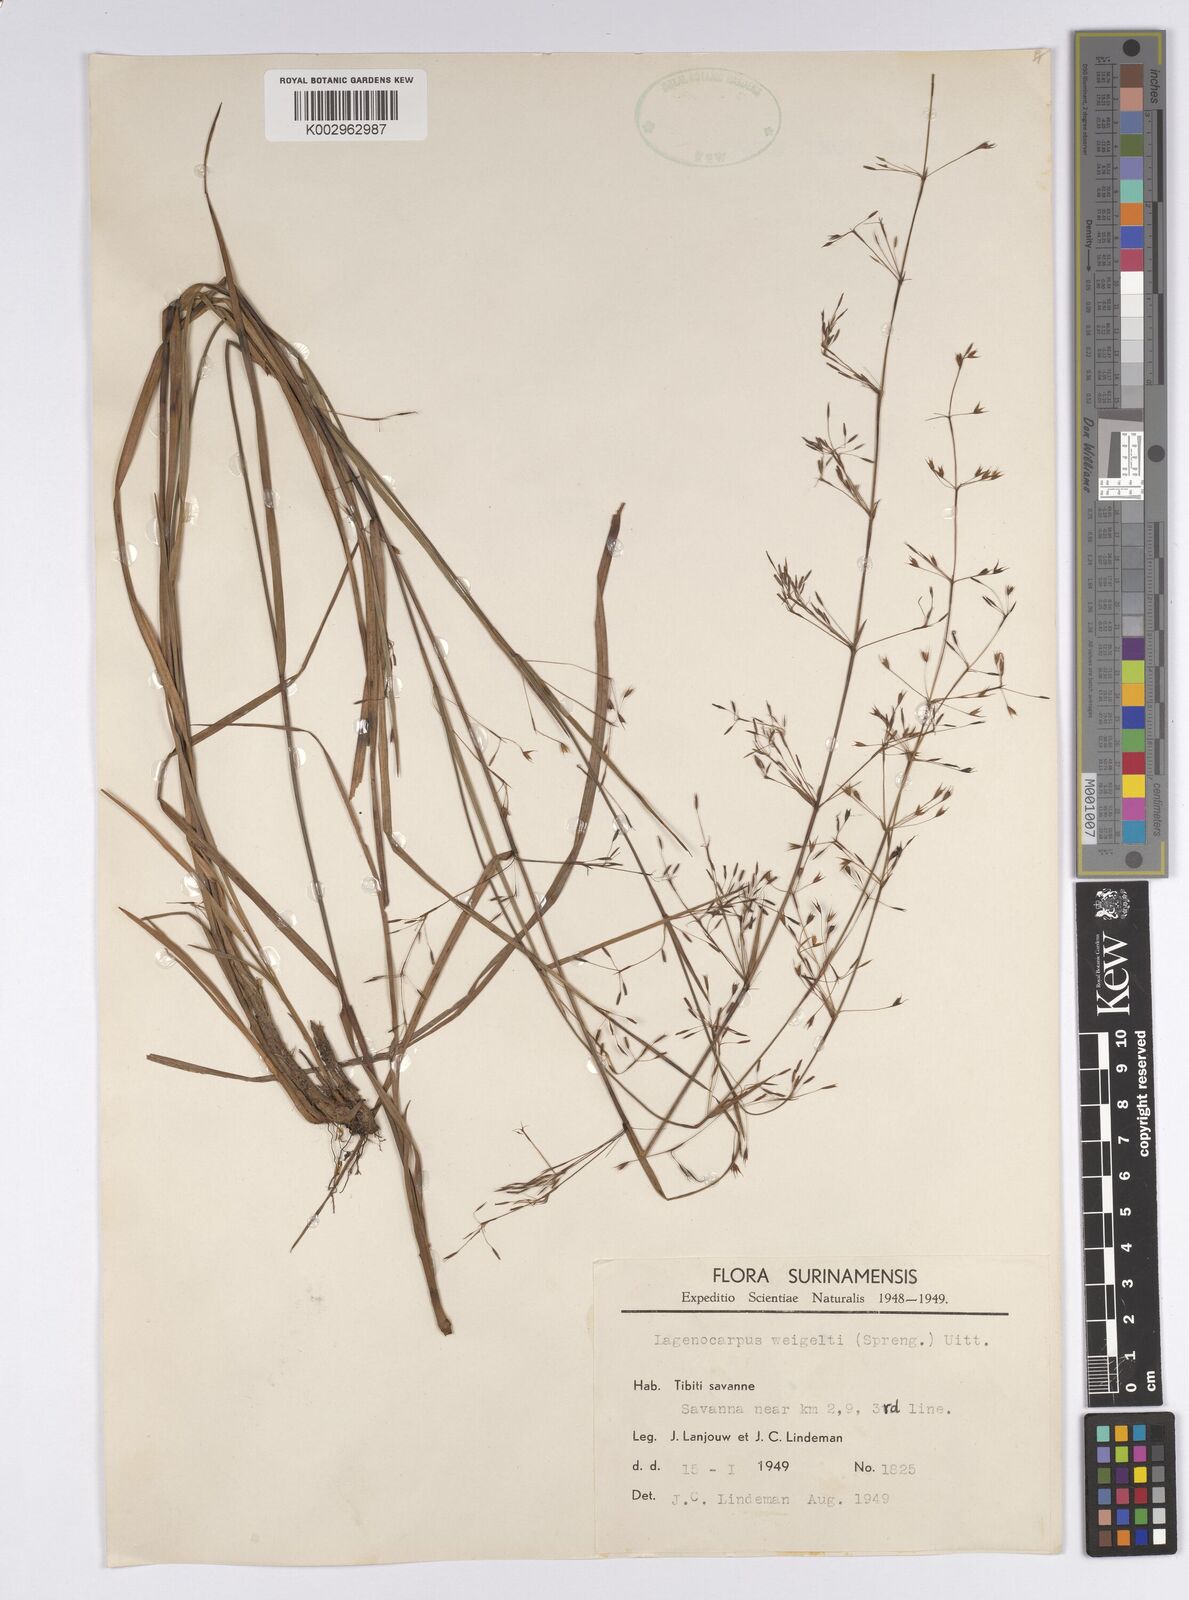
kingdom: Plantae
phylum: Tracheophyta
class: Liliopsida
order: Poales
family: Cyperaceae
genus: Cryptangium
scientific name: Cryptangium verticillatum
